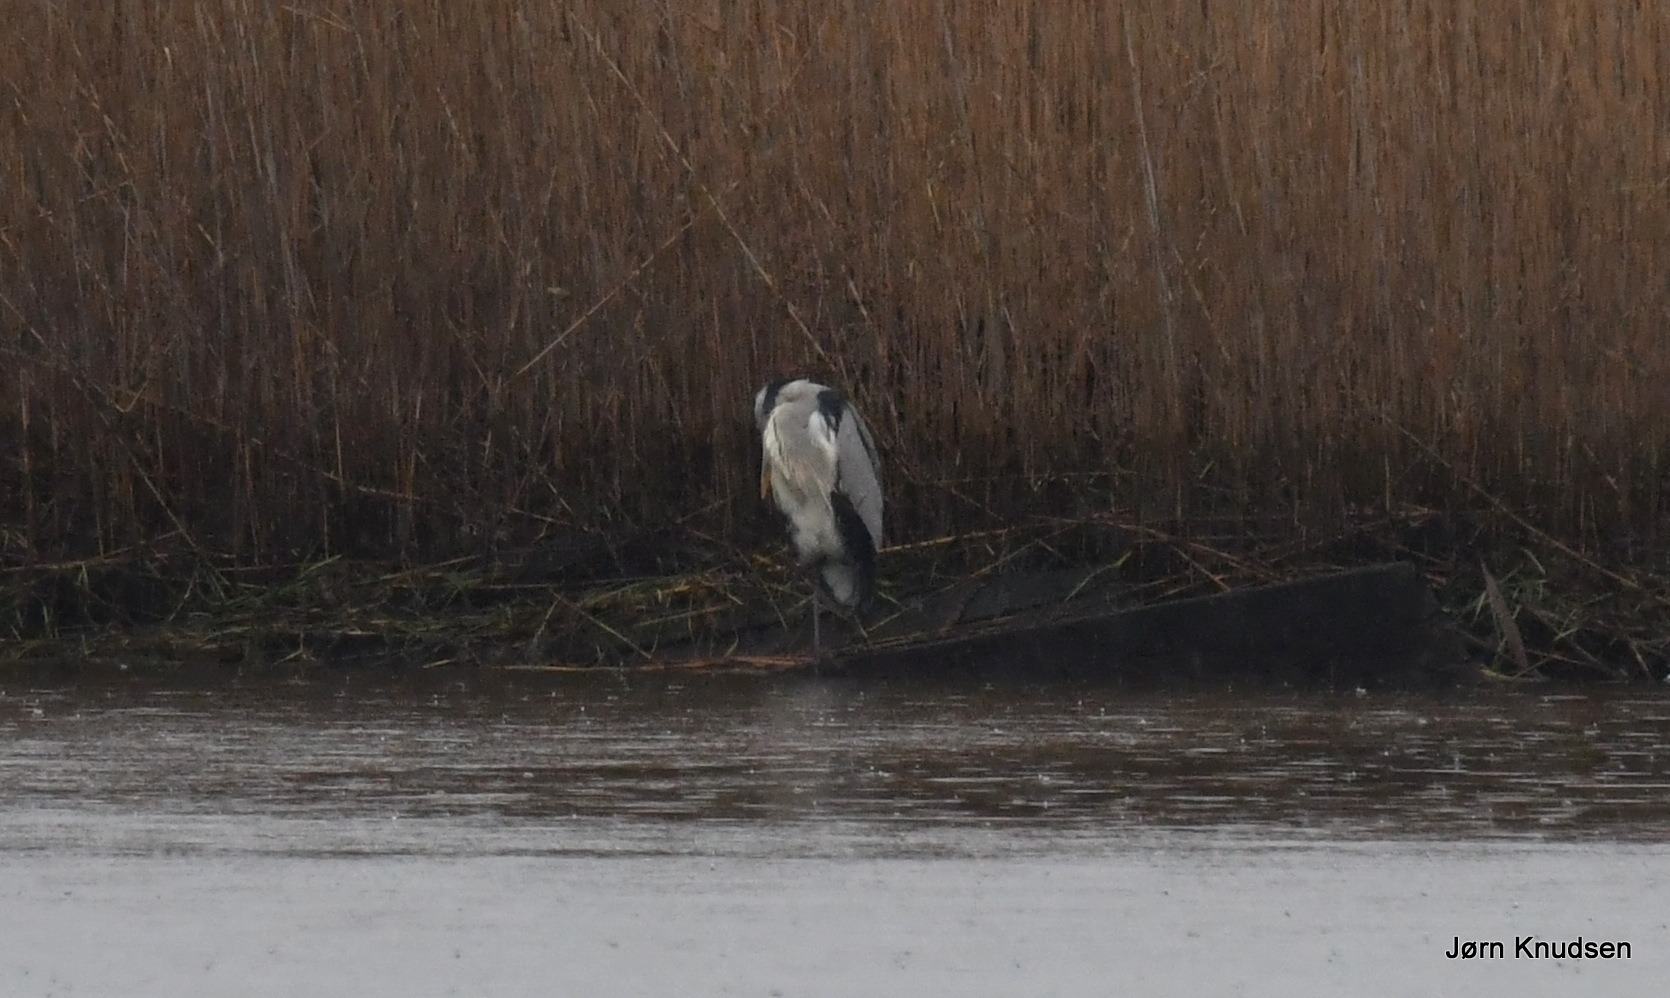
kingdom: Animalia
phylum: Chordata
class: Aves
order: Pelecaniformes
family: Ardeidae
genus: Ardea
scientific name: Ardea cinerea
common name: Fiskehejre
